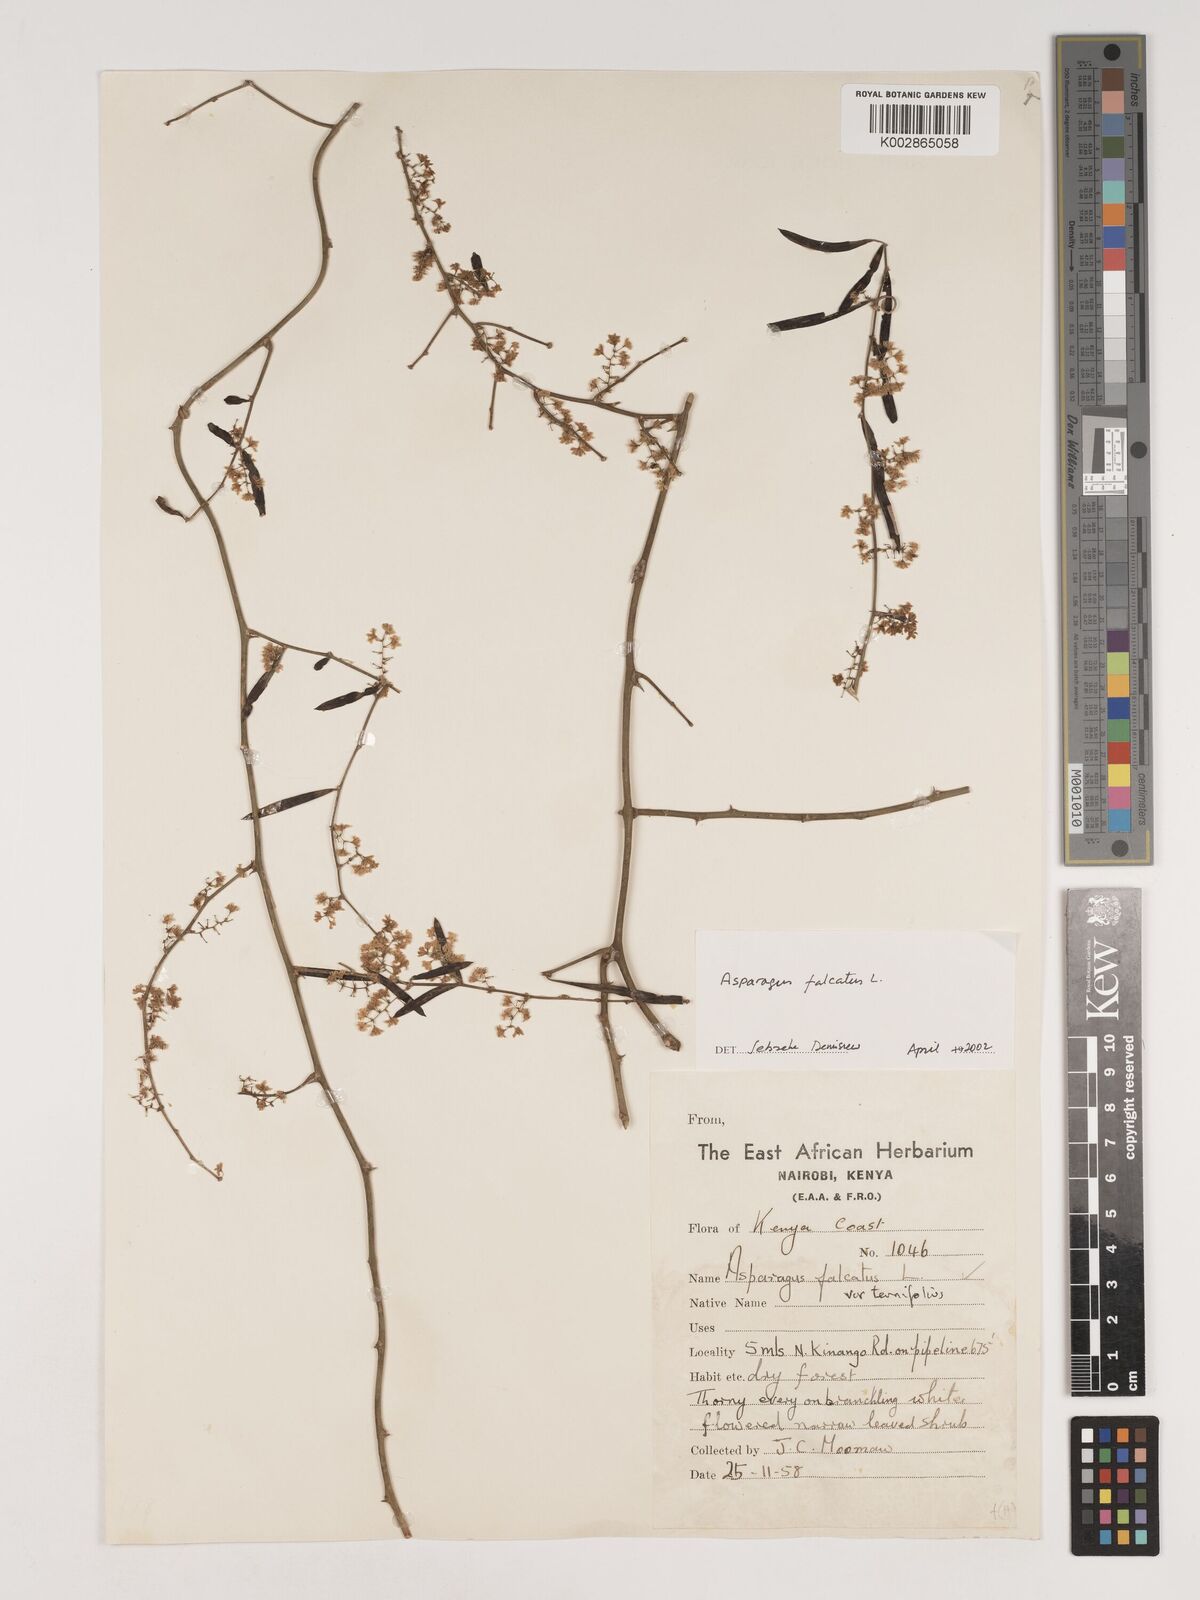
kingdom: Plantae
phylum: Tracheophyta
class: Liliopsida
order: Asparagales
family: Asparagaceae
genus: Asparagus
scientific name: Asparagus falcatus
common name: Asparagus
